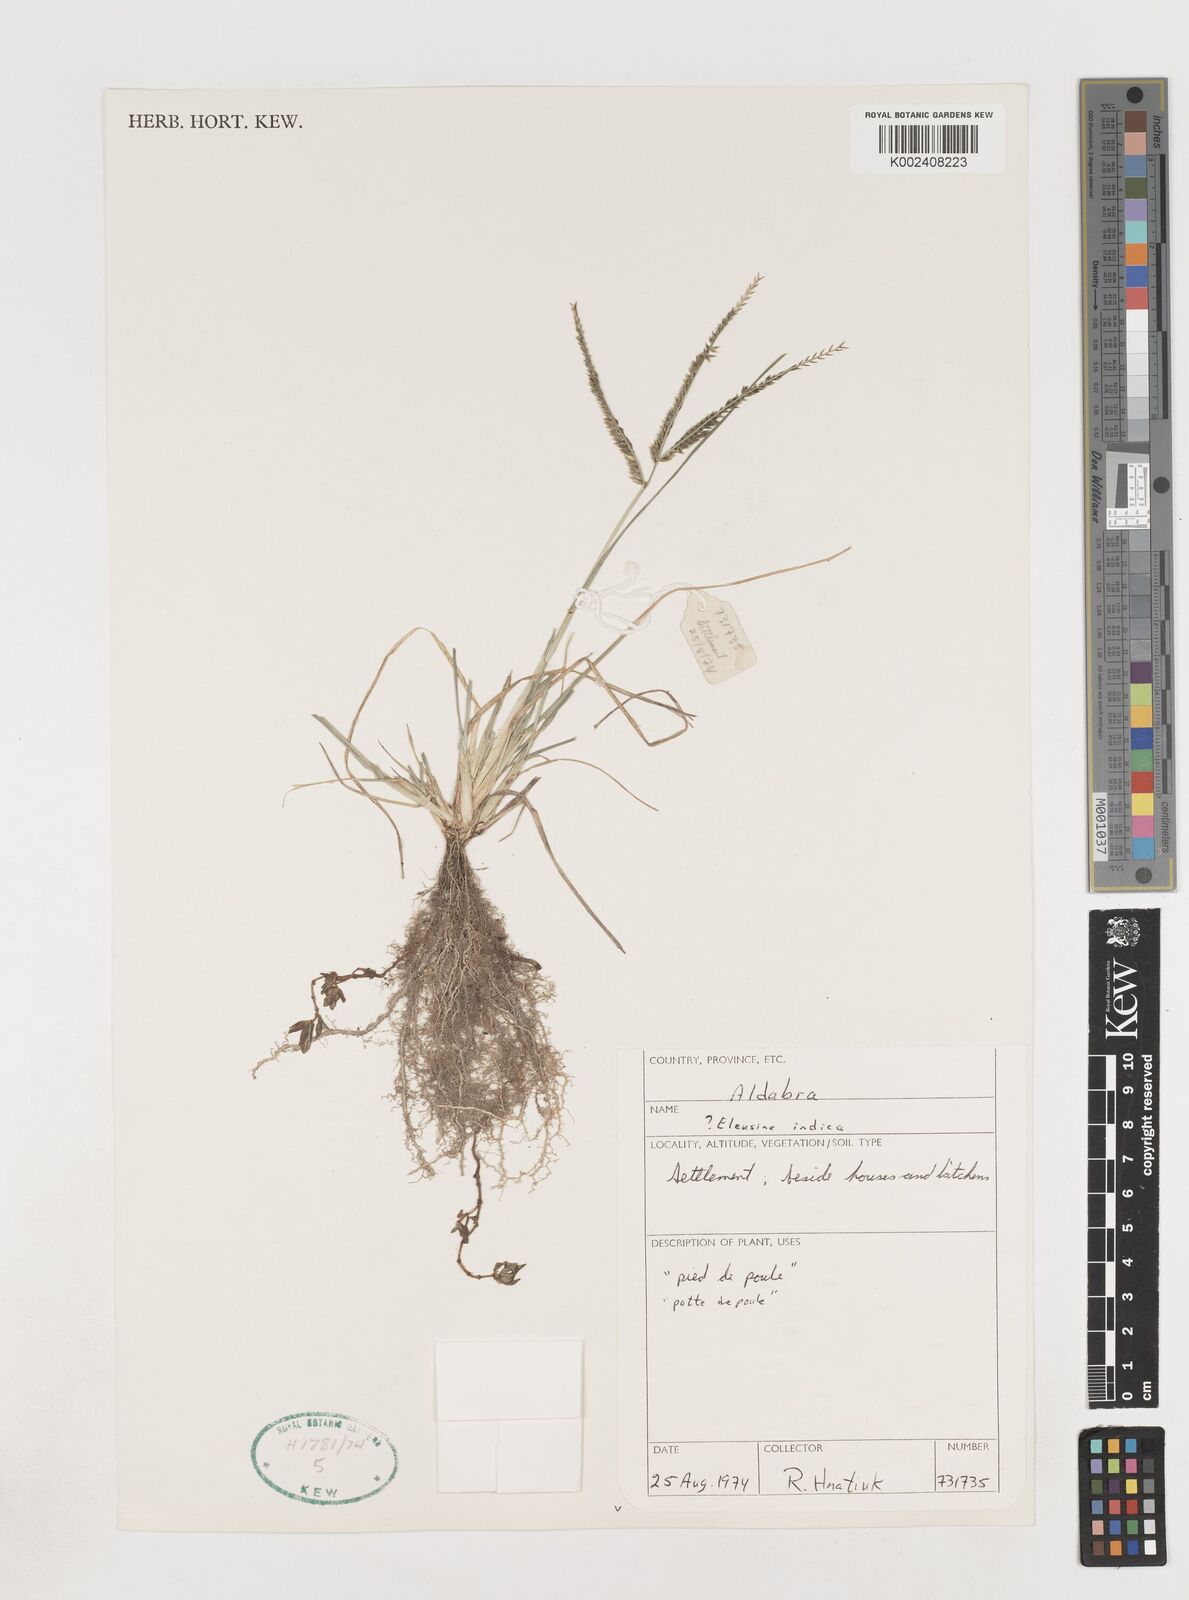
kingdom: Plantae
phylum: Tracheophyta
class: Liliopsida
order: Poales
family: Poaceae
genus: Eleusine
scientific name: Eleusine africana
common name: Wild african finger millet
